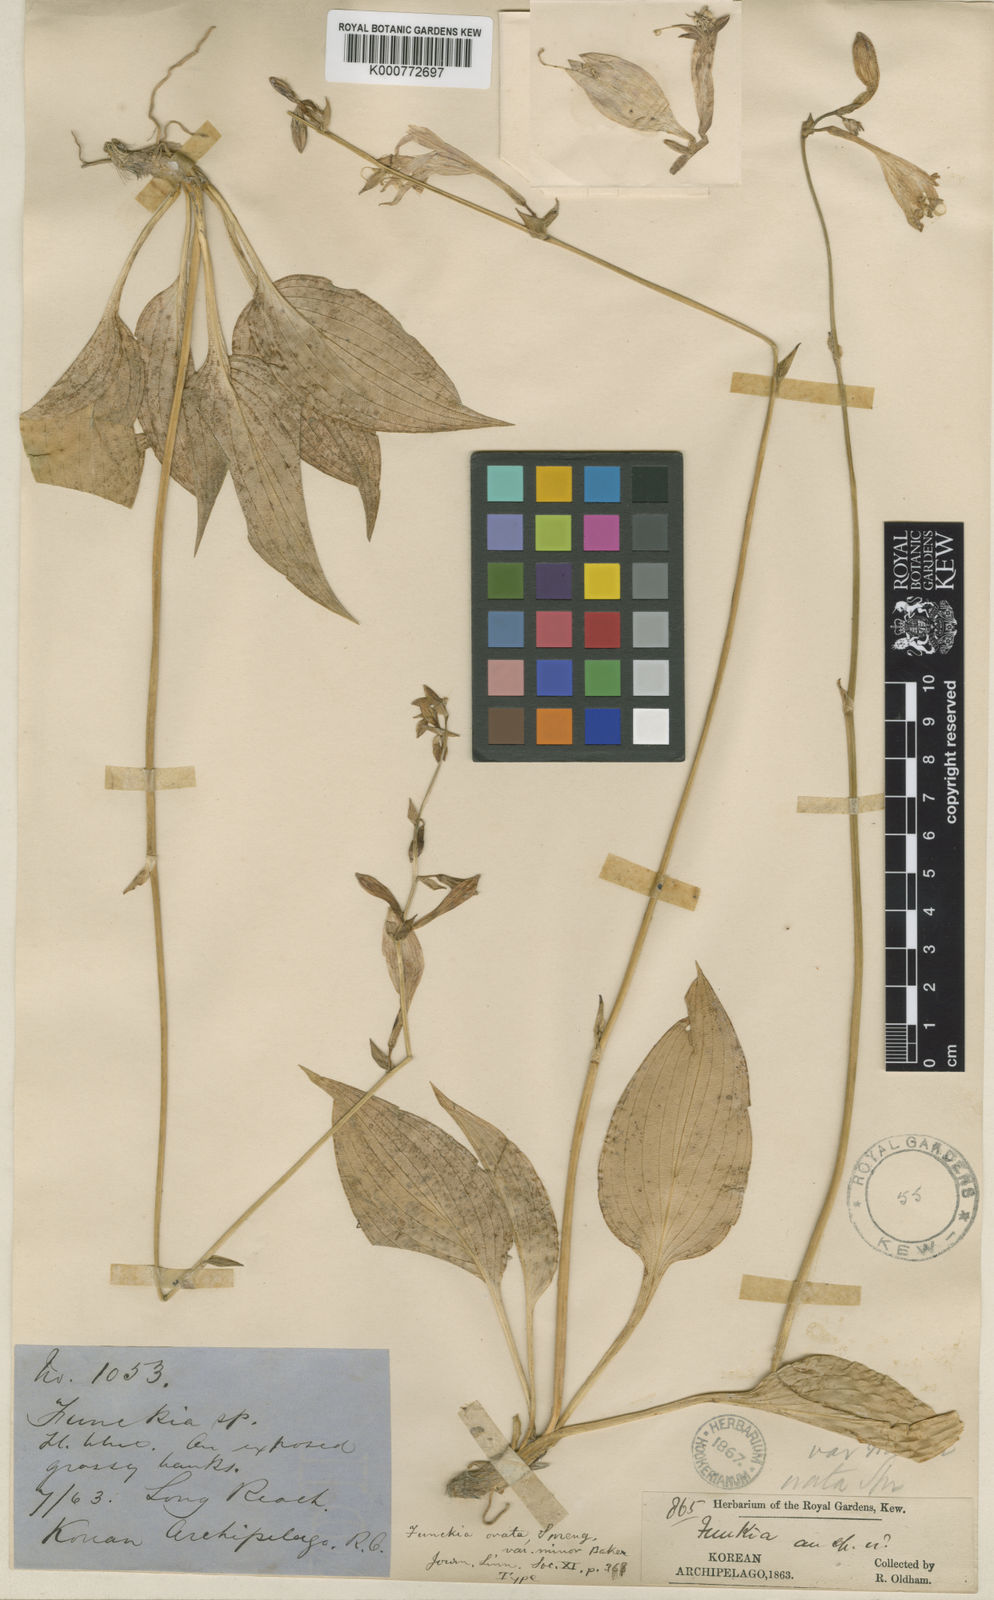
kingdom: Plantae
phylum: Tracheophyta
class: Liliopsida
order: Asparagales
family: Asparagaceae
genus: Hosta
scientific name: Hosta minor
